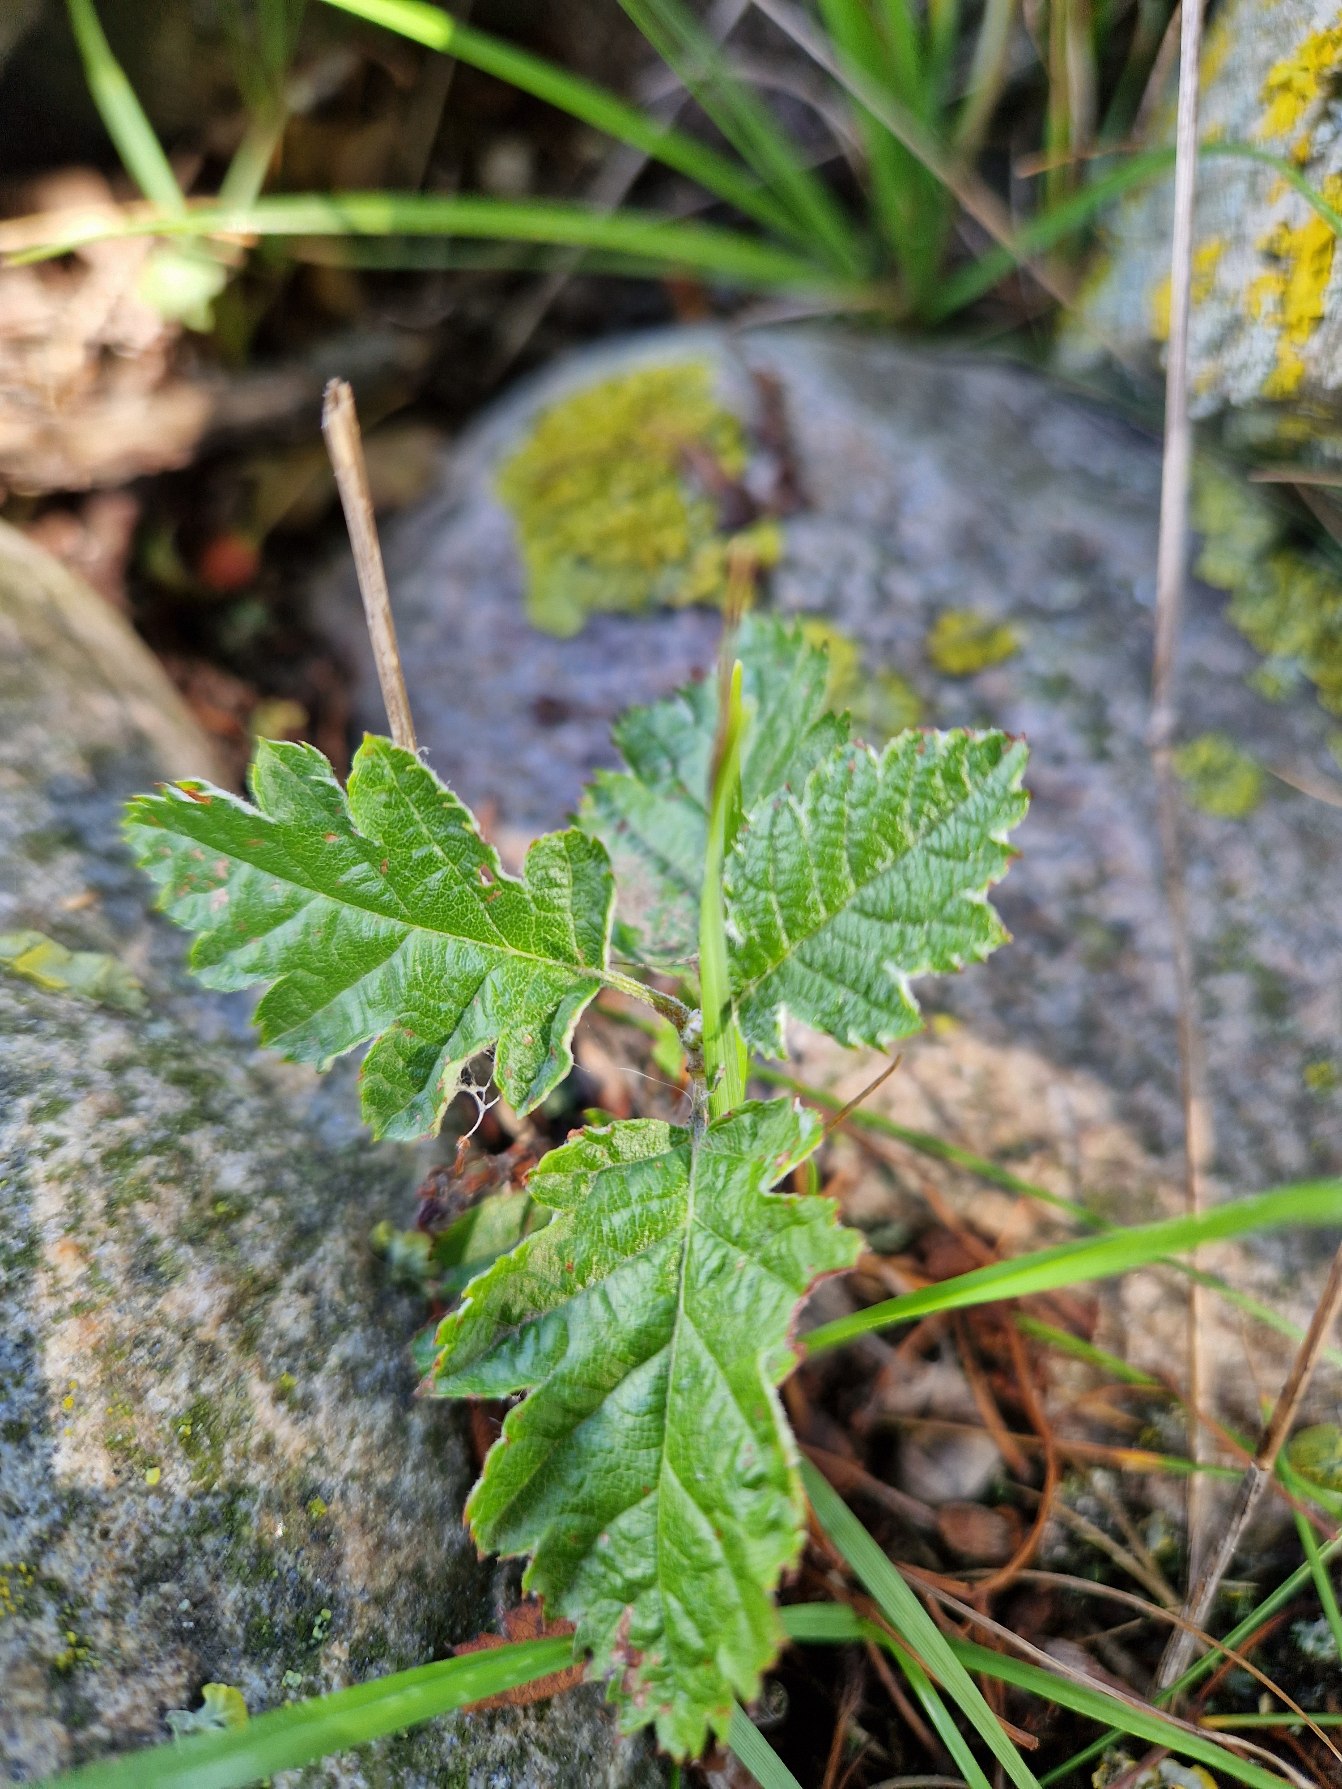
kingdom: Plantae
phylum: Tracheophyta
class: Magnoliopsida
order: Rosales
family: Rosaceae
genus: Scandosorbus
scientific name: Scandosorbus intermedia
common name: Selje-røn
